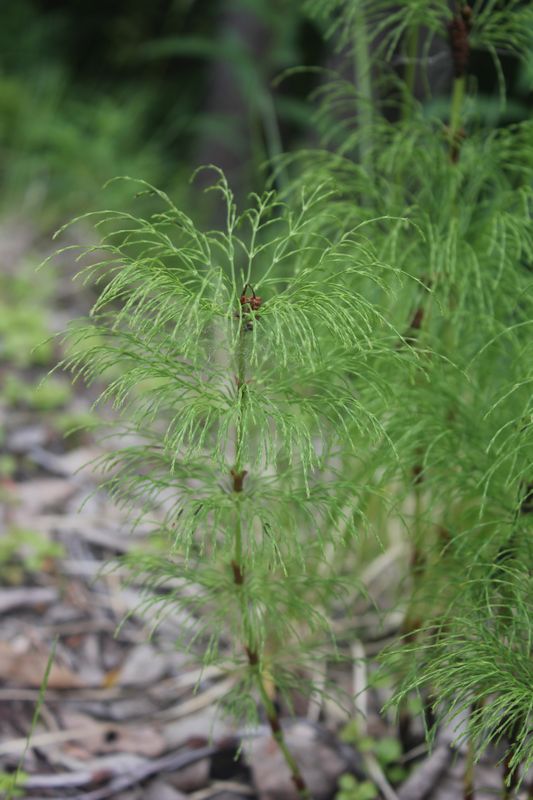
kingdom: Plantae
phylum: Tracheophyta
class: Polypodiopsida
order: Equisetales
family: Equisetaceae
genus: Equisetum
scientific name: Equisetum sylvaticum
